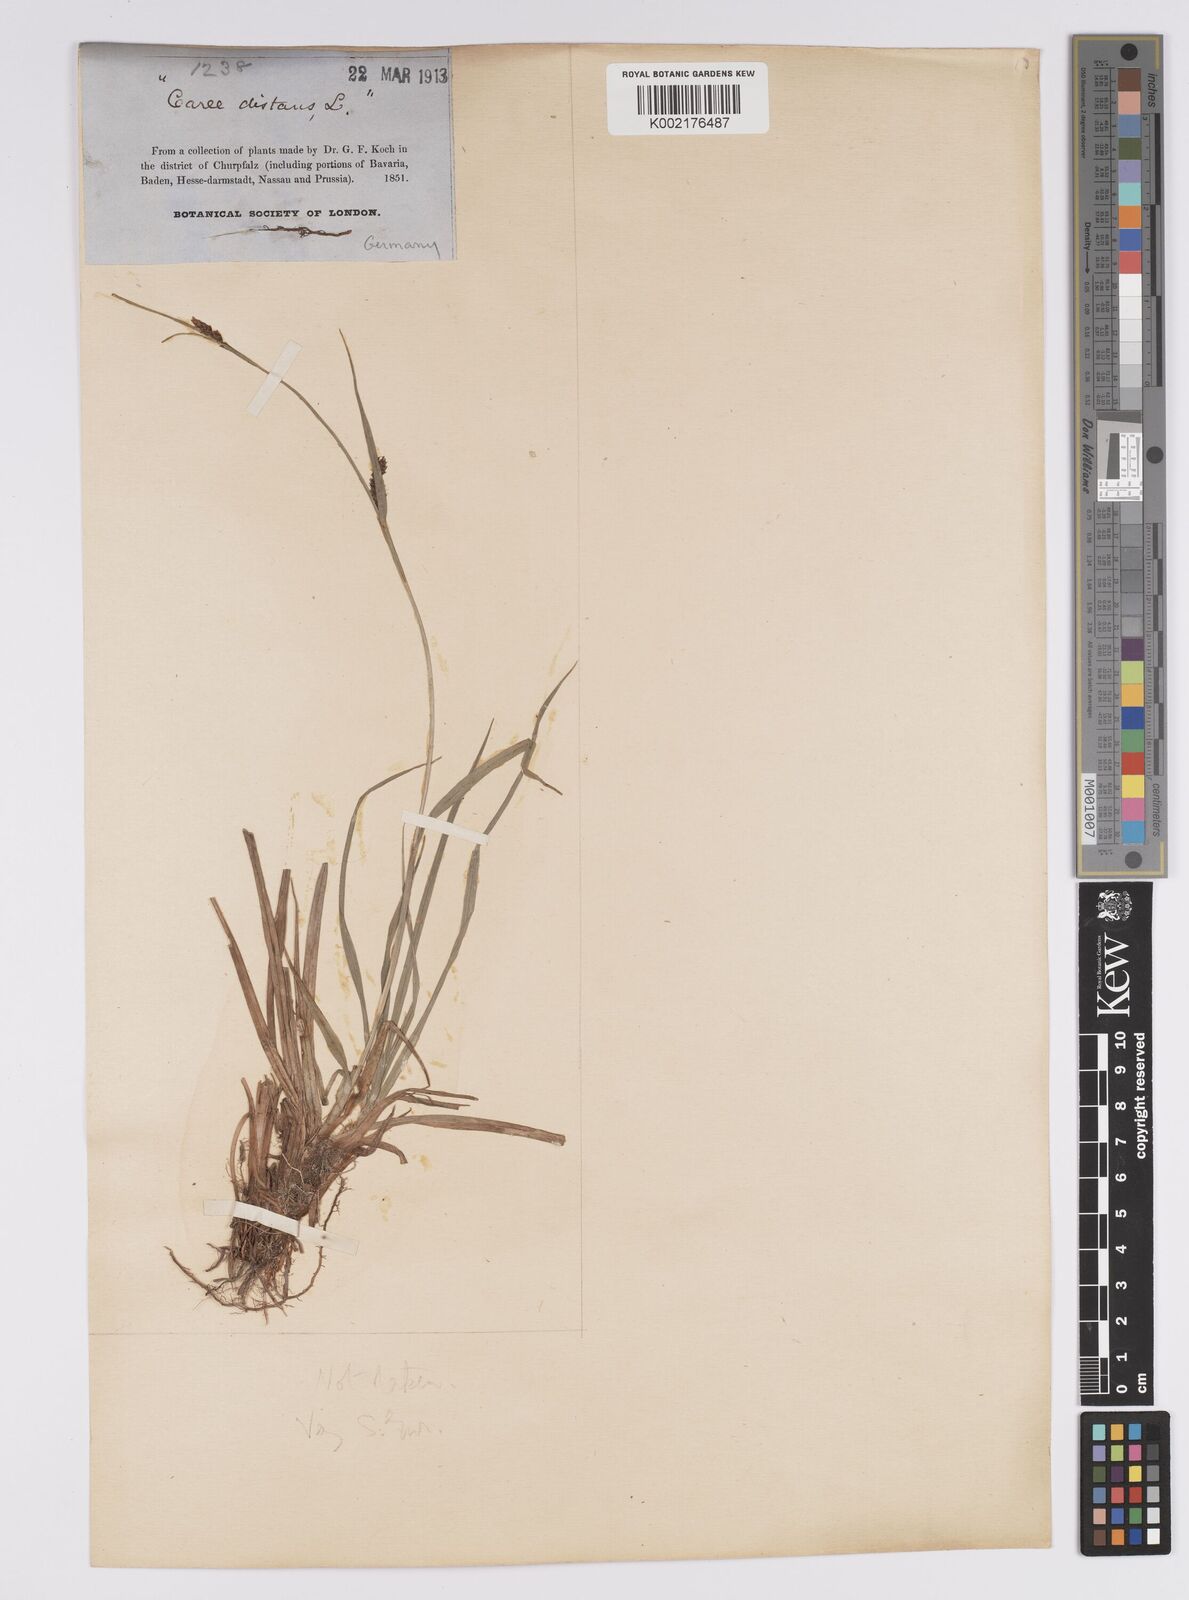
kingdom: Plantae
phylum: Tracheophyta
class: Liliopsida
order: Poales
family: Cyperaceae
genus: Carex
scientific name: Carex distans
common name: Distant sedge
